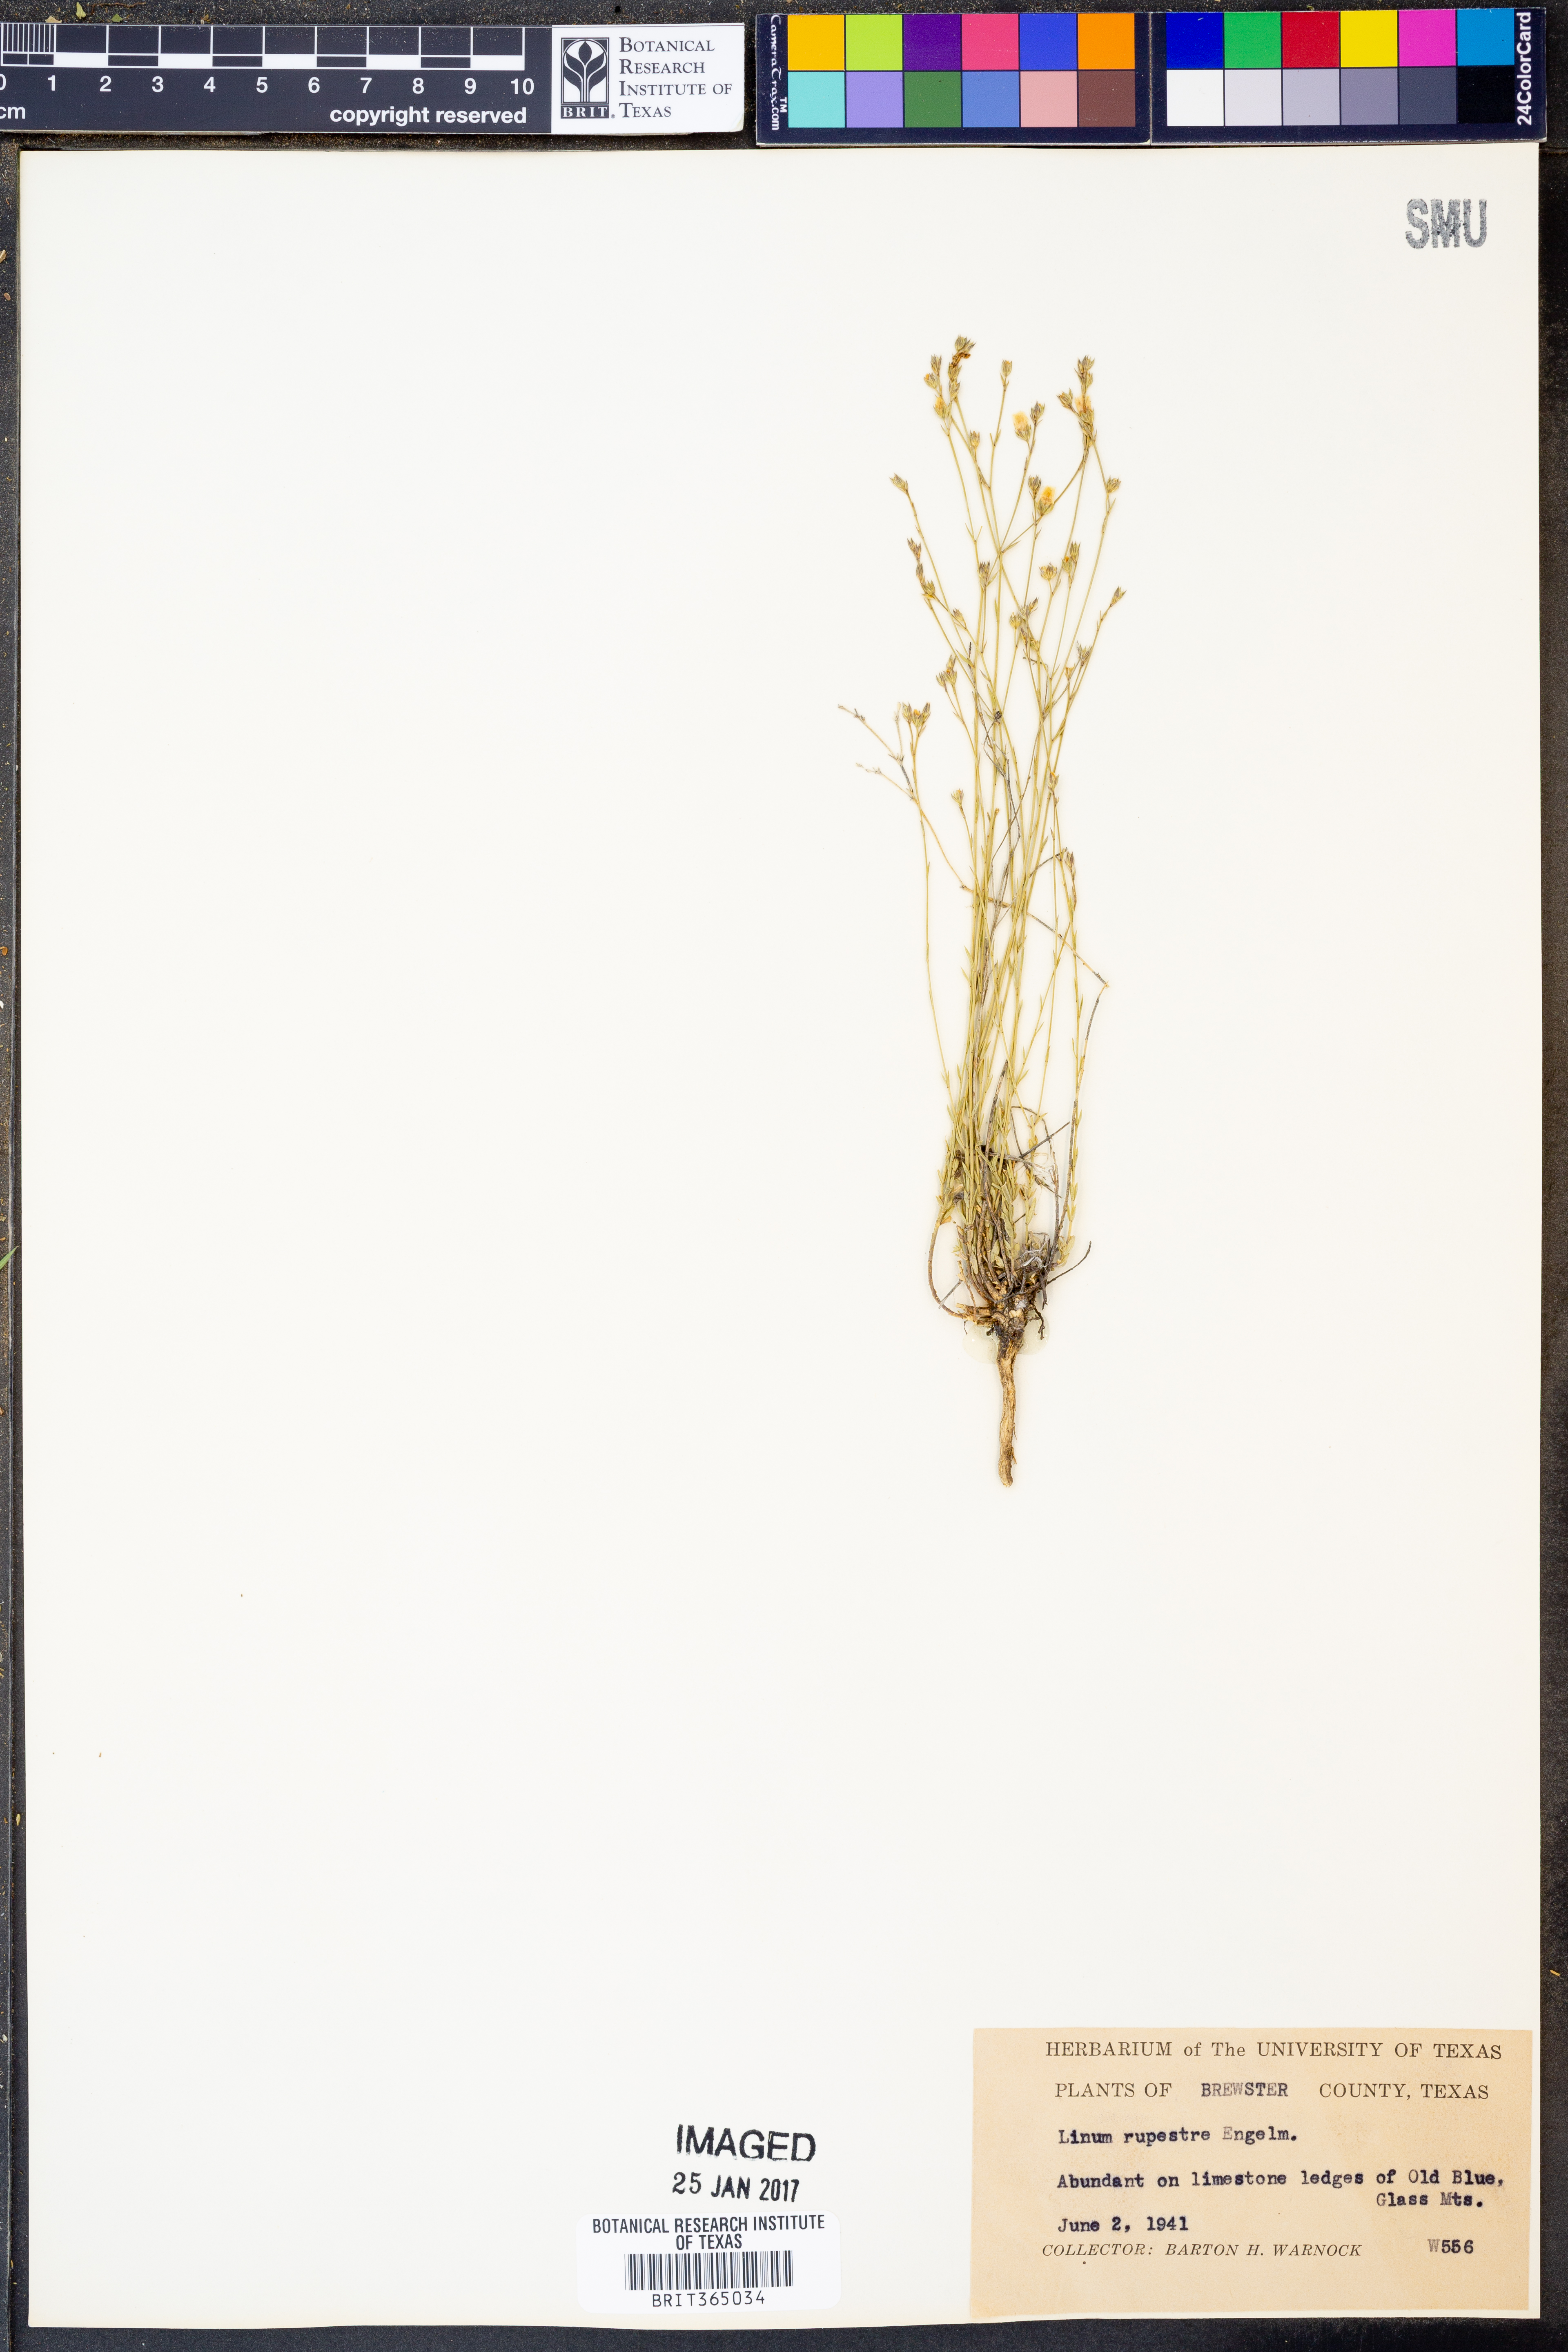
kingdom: Plantae
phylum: Tracheophyta
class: Magnoliopsida
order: Malpighiales
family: Linaceae
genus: Linum
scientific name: Linum rupestre
